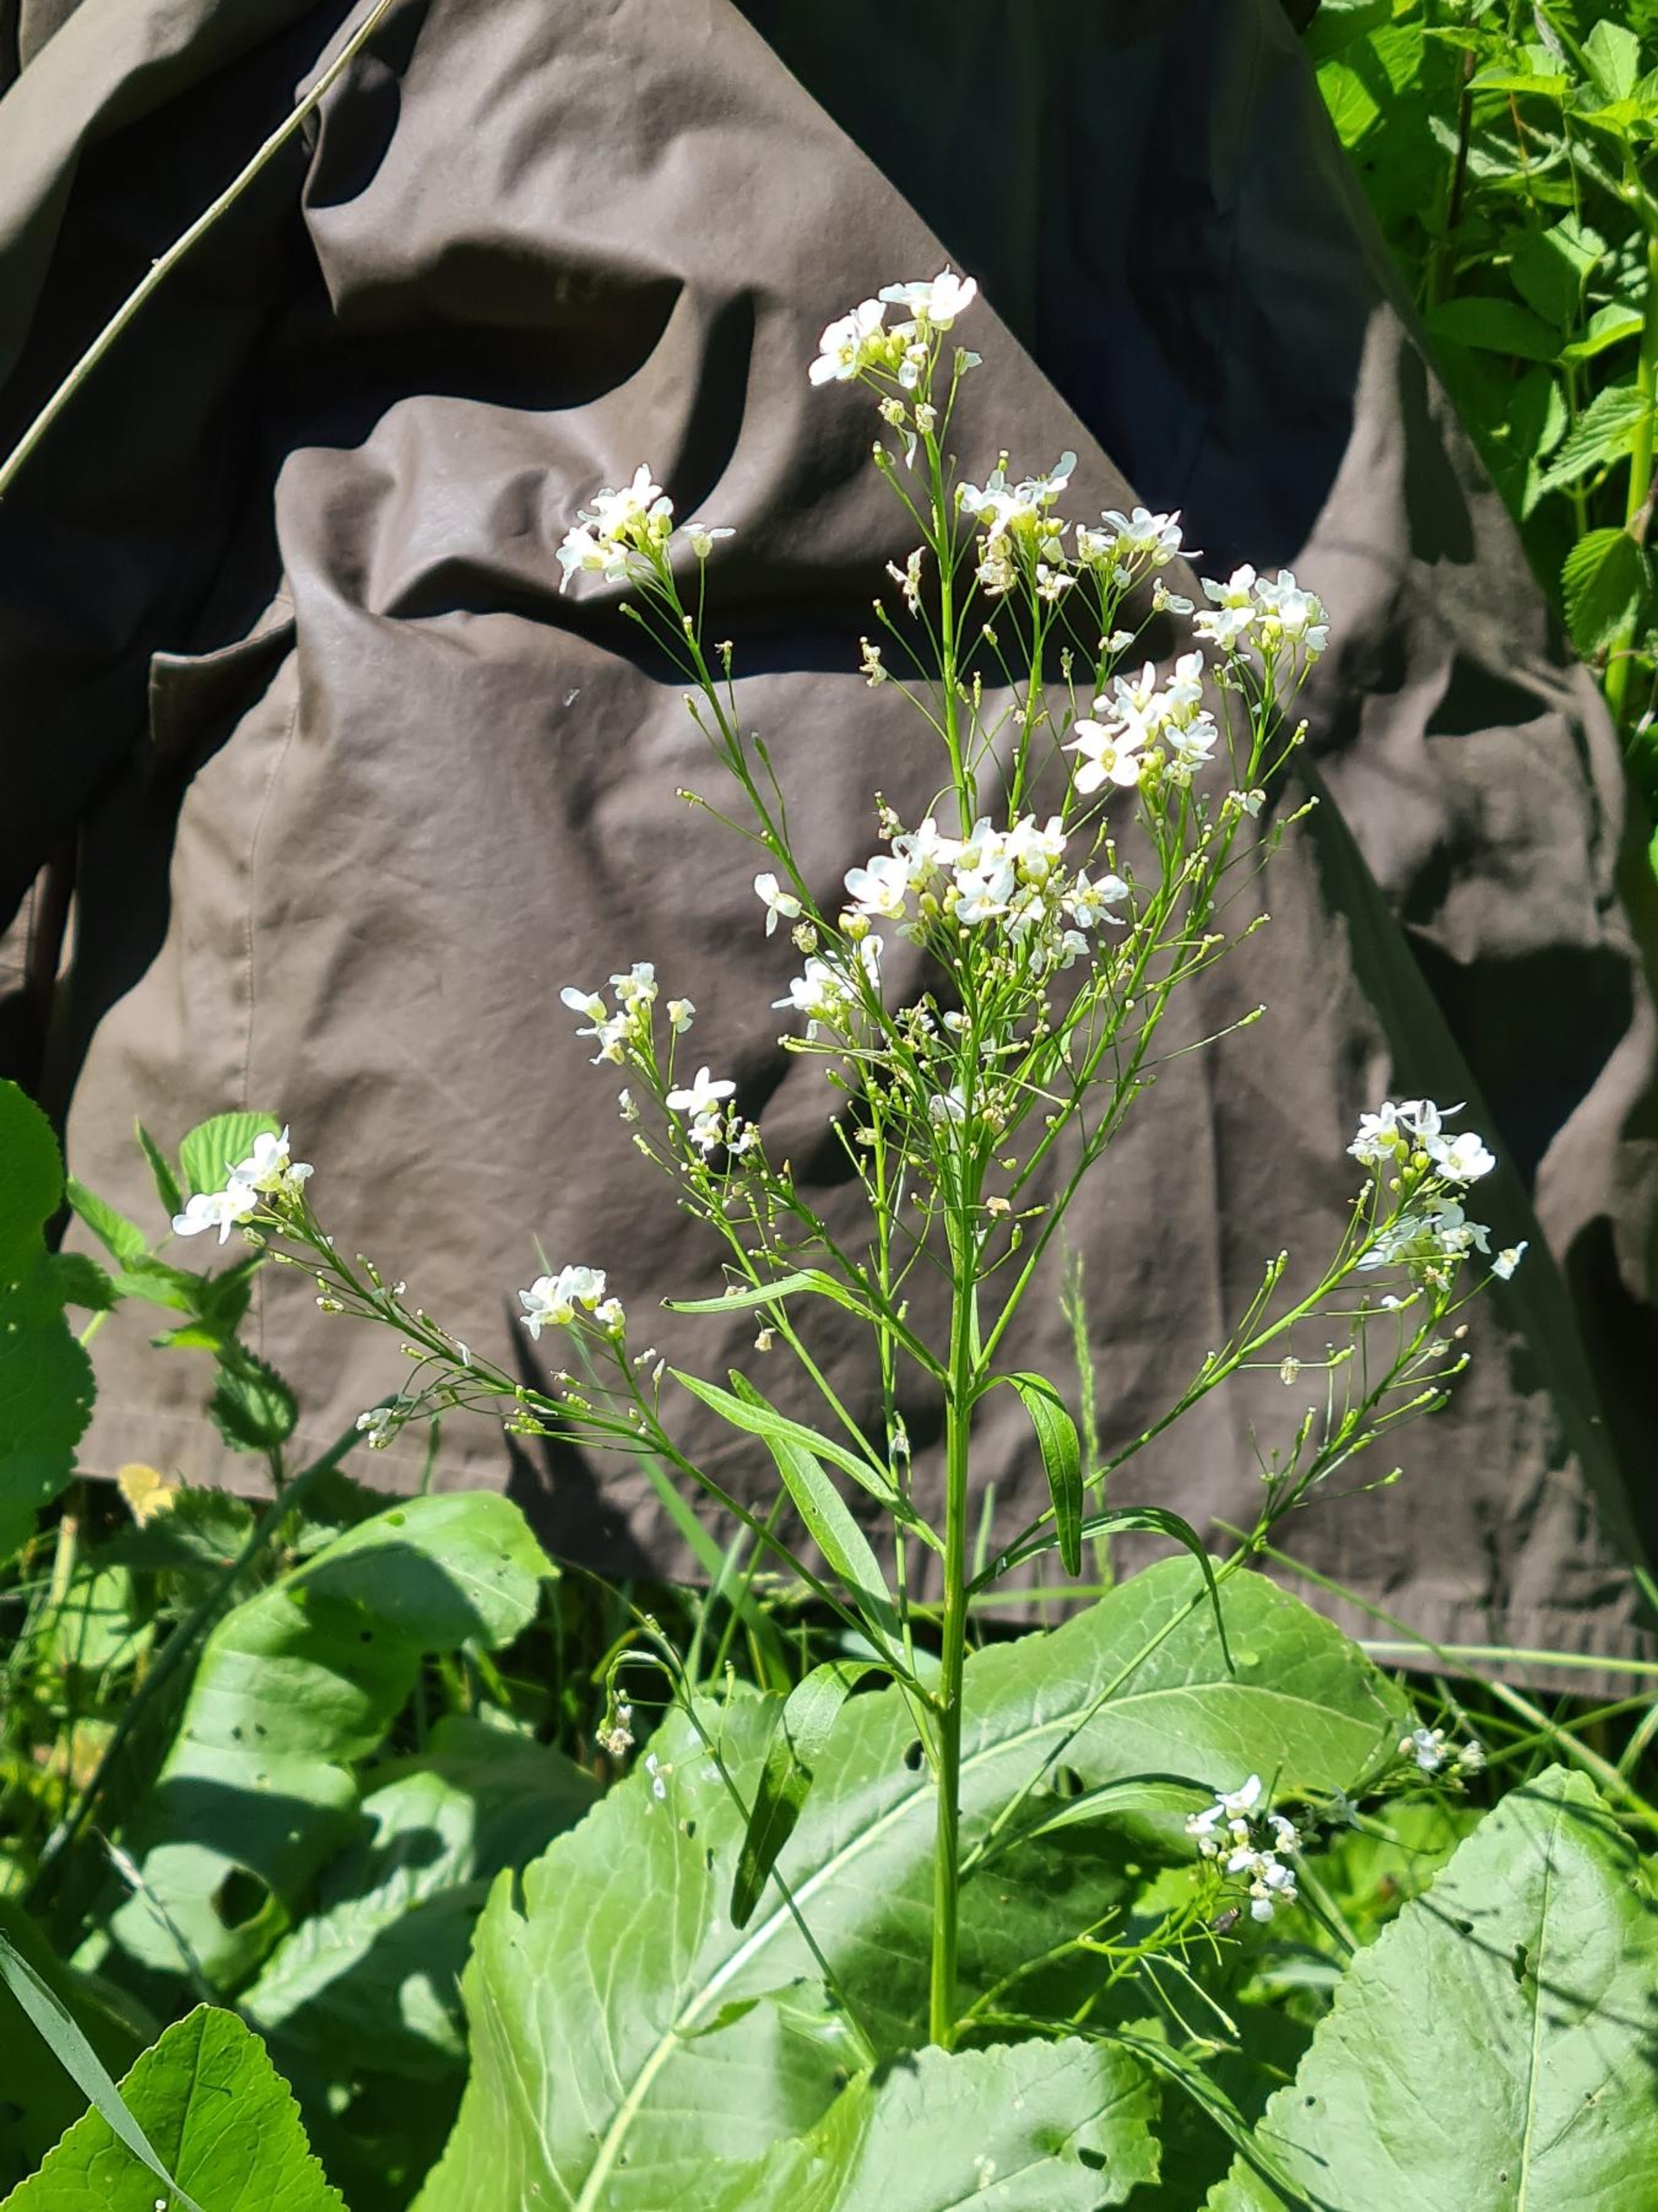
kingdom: Plantae
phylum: Tracheophyta
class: Magnoliopsida
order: Brassicales
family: Brassicaceae
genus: Armoracia
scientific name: Armoracia rusticana
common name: Peberrod
